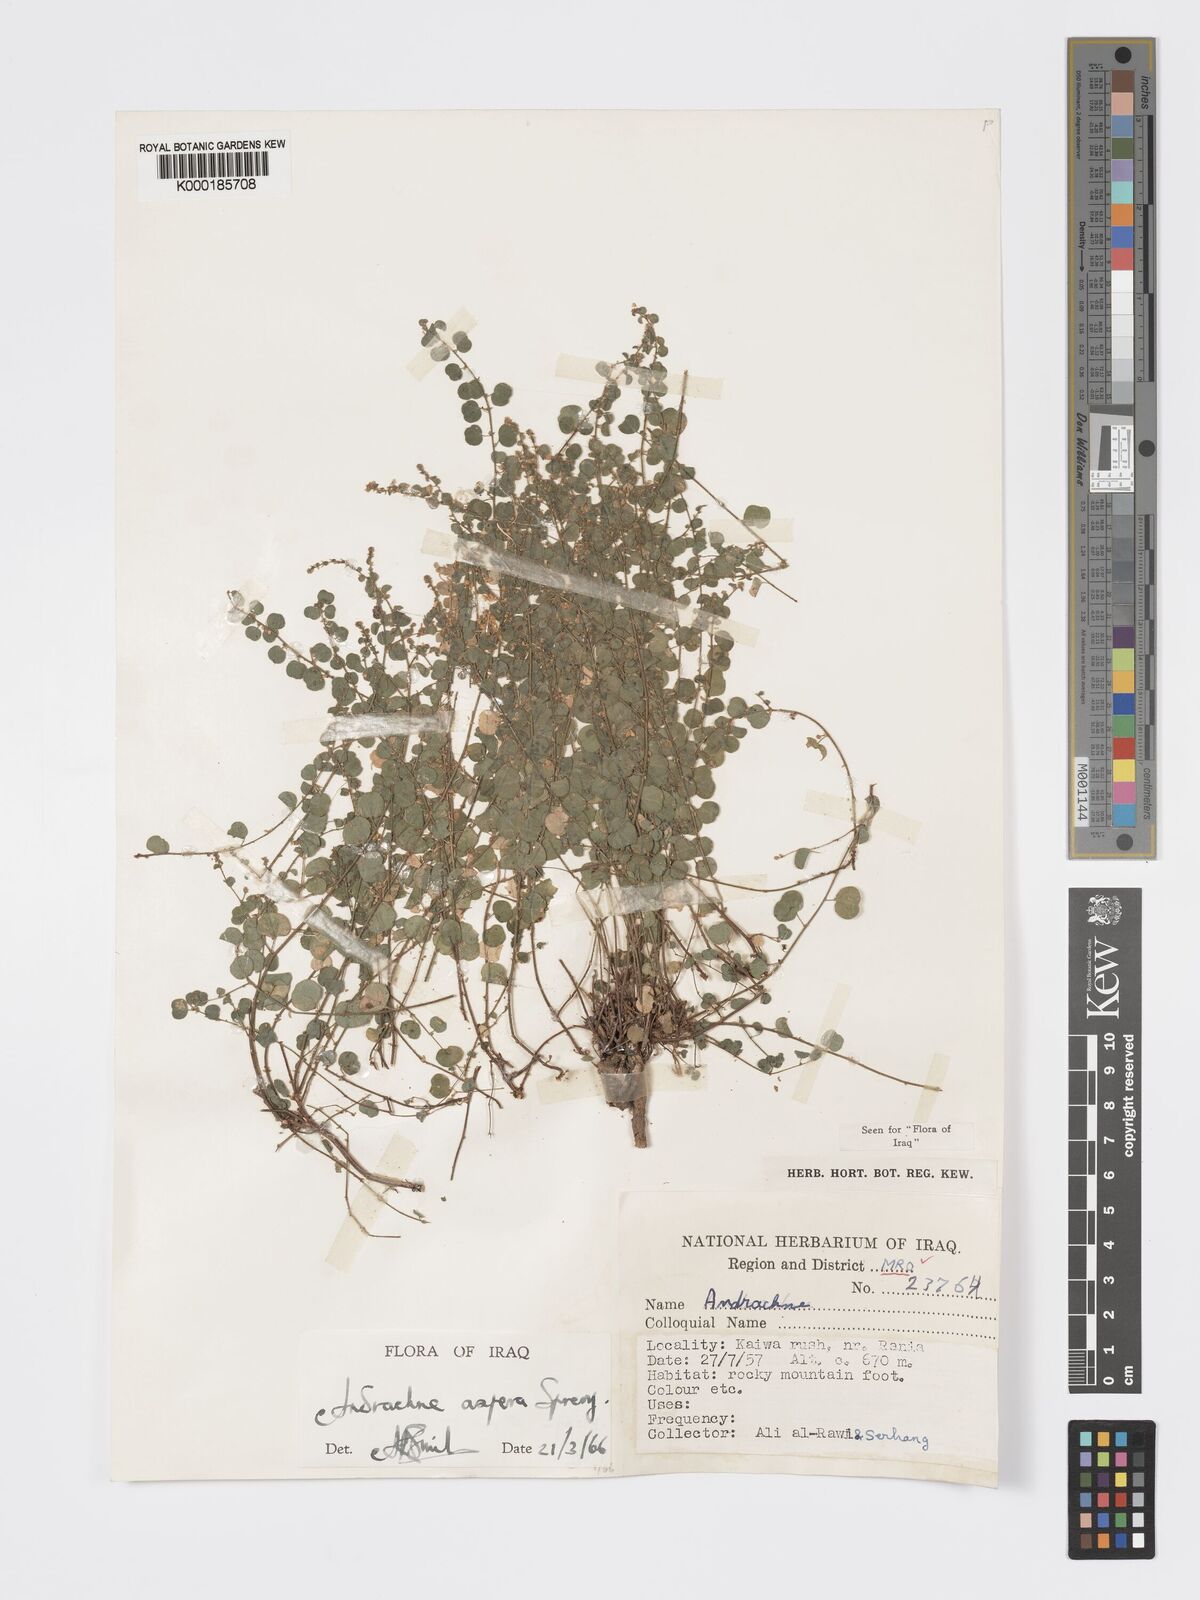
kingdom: Plantae
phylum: Tracheophyta
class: Magnoliopsida
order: Malpighiales
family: Phyllanthaceae
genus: Andrachne
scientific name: Andrachne aspera
